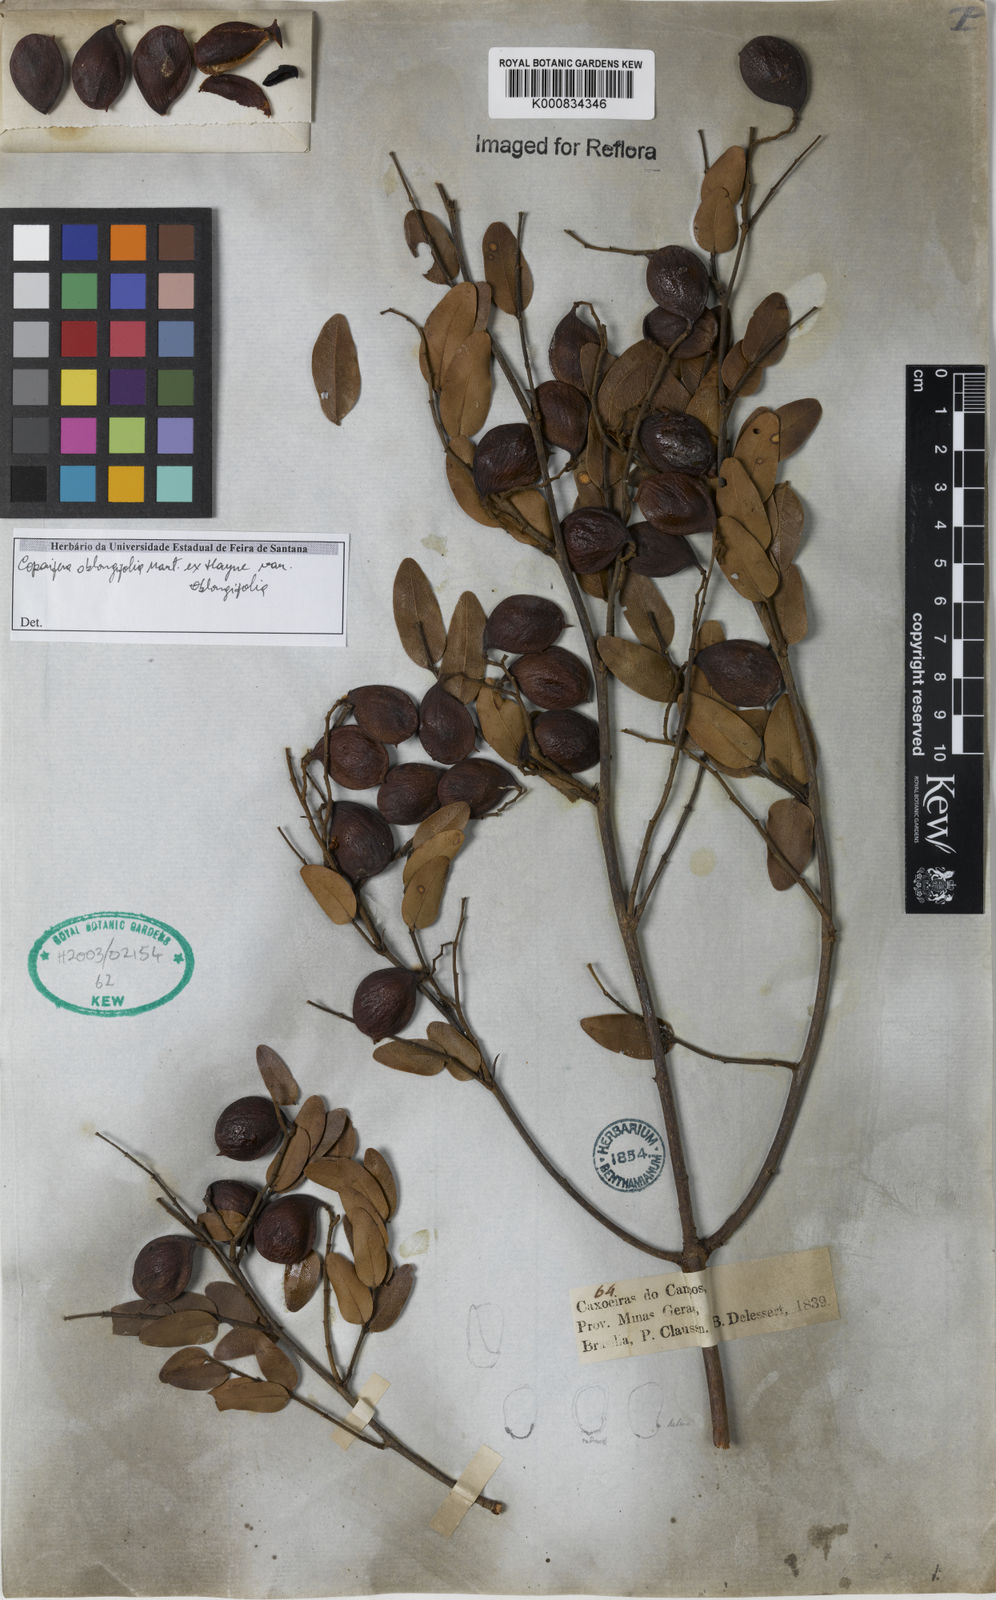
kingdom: Plantae
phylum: Tracheophyta
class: Magnoliopsida
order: Fabales
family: Fabaceae
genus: Copaifera
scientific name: Copaifera
